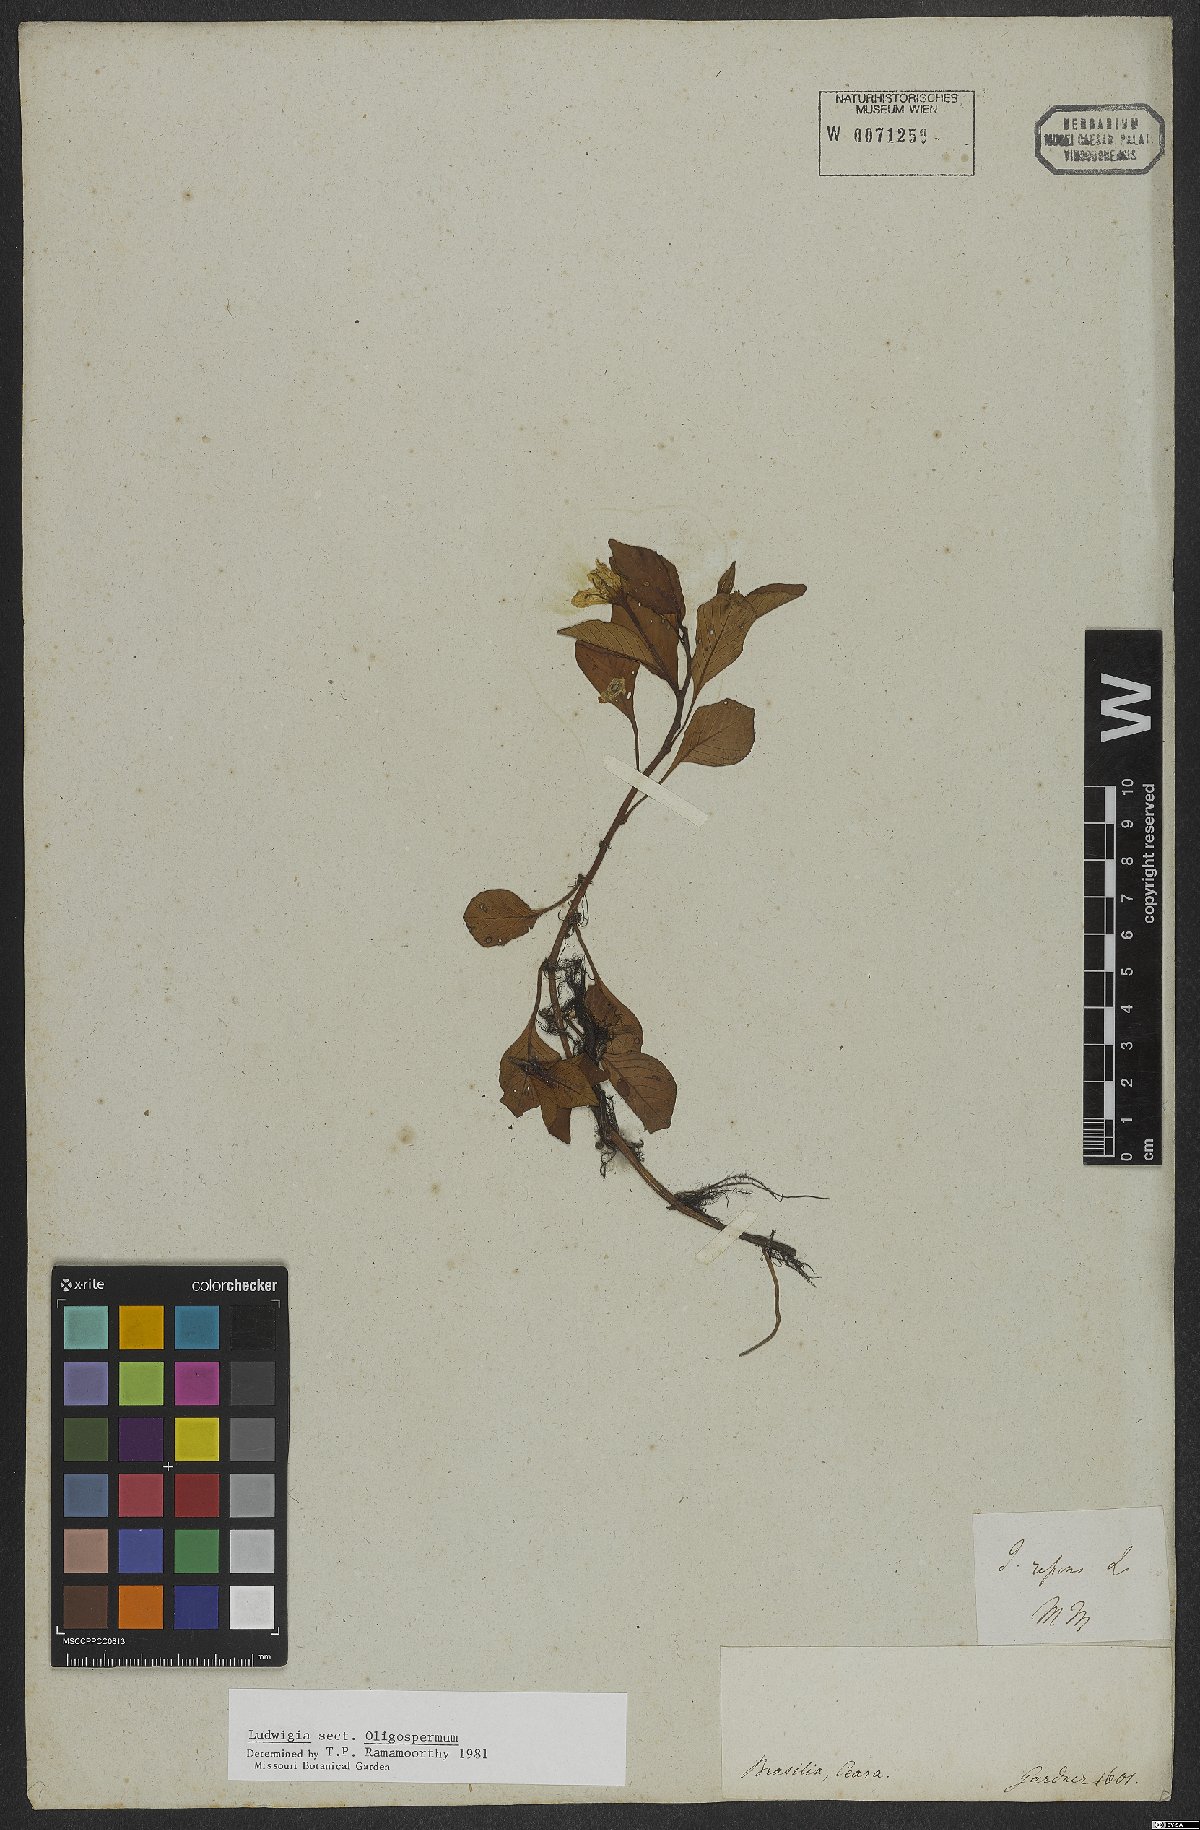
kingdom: Plantae
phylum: Tracheophyta
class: Magnoliopsida
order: Myrtales
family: Onagraceae
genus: Ludwigia
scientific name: Ludwigia
